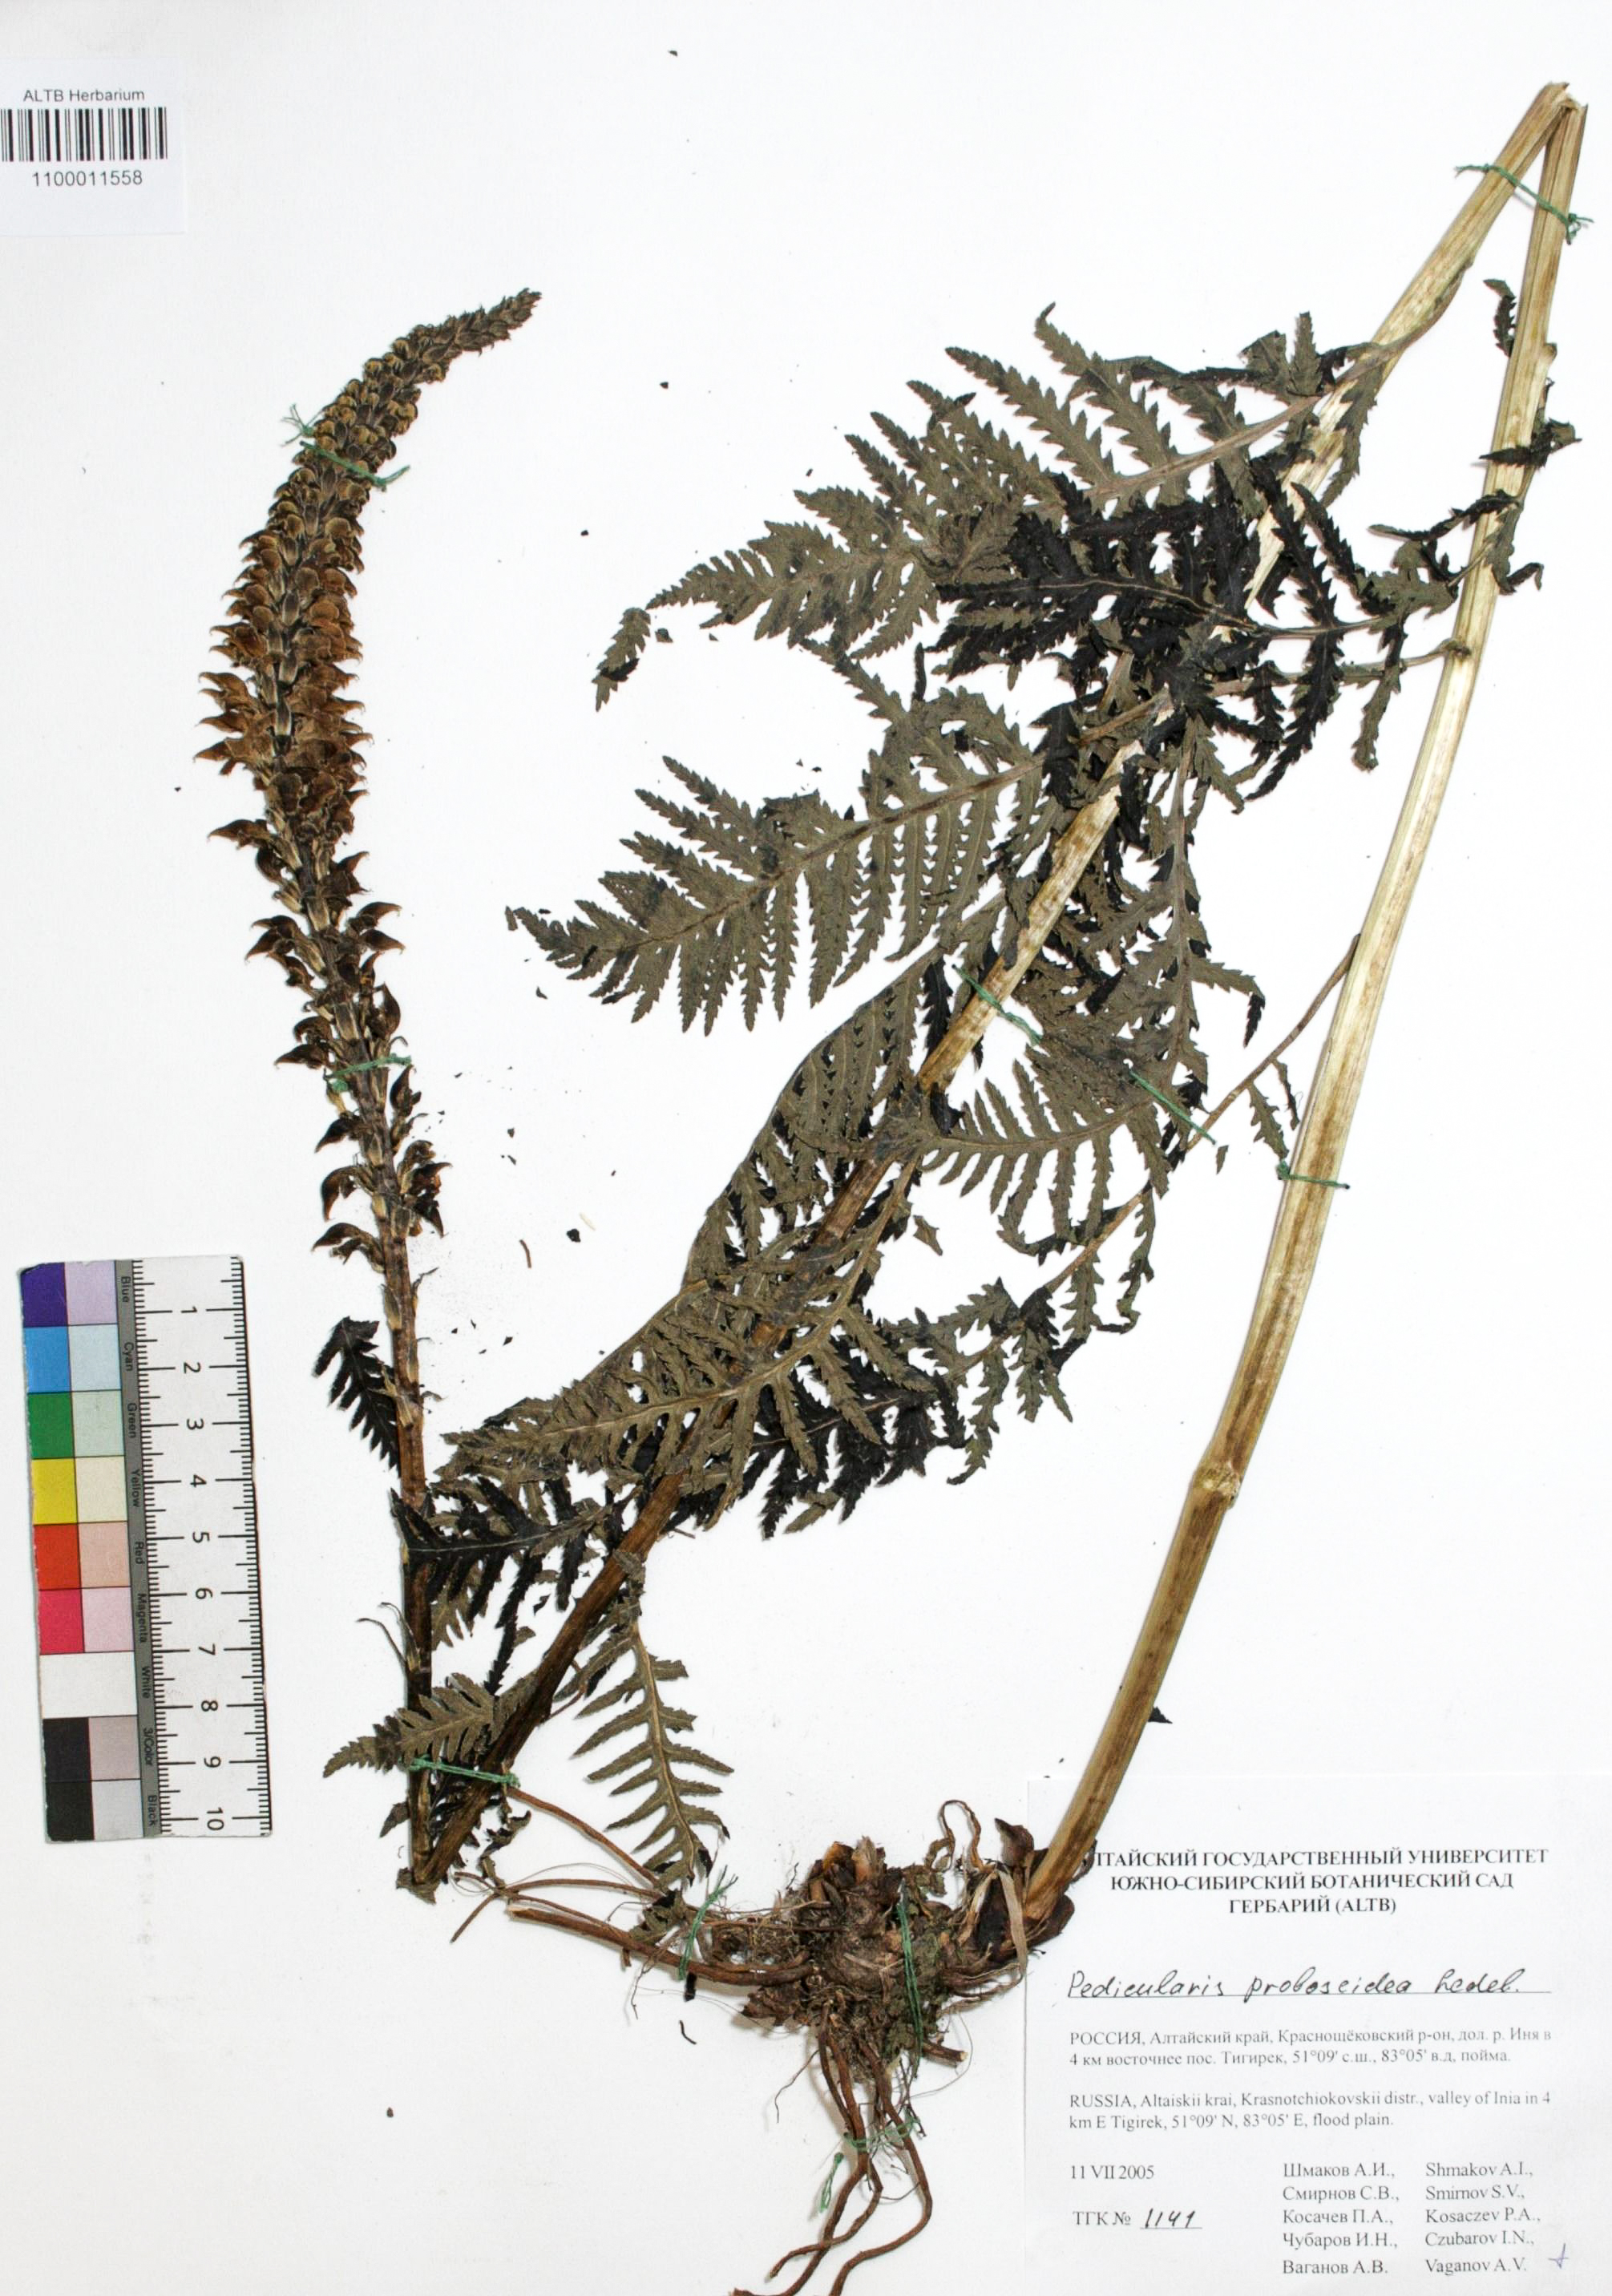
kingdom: Plantae
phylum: Tracheophyta
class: Magnoliopsida
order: Lamiales
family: Orobanchaceae
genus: Pedicularis
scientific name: Pedicularis proboscidea
